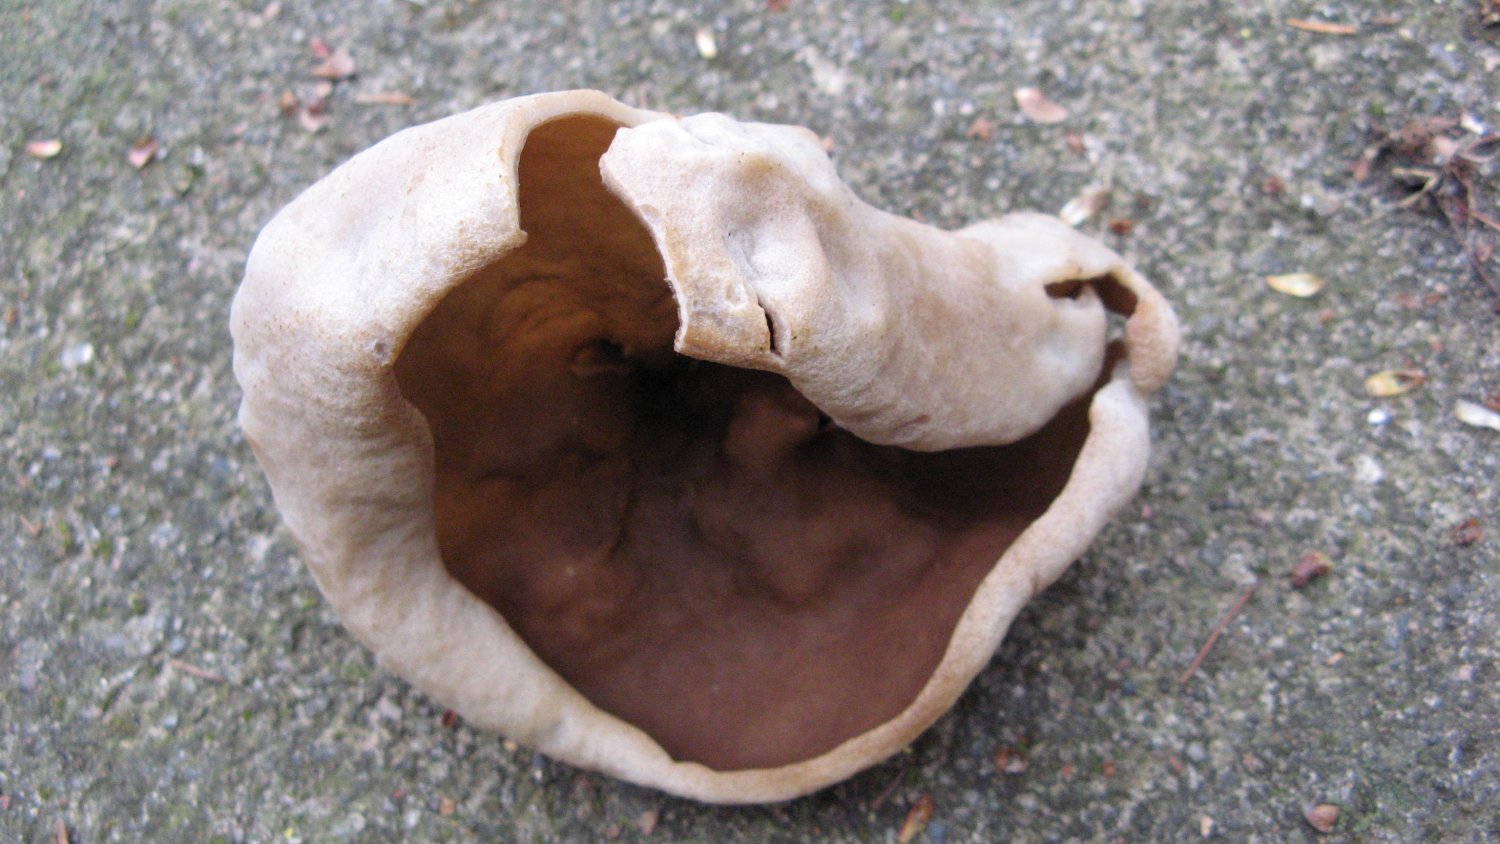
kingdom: Fungi
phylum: Ascomycota
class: Pezizomycetes
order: Pezizales
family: Morchellaceae
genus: Disciotis
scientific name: Disciotis venosa
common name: klor-bægermorkel
